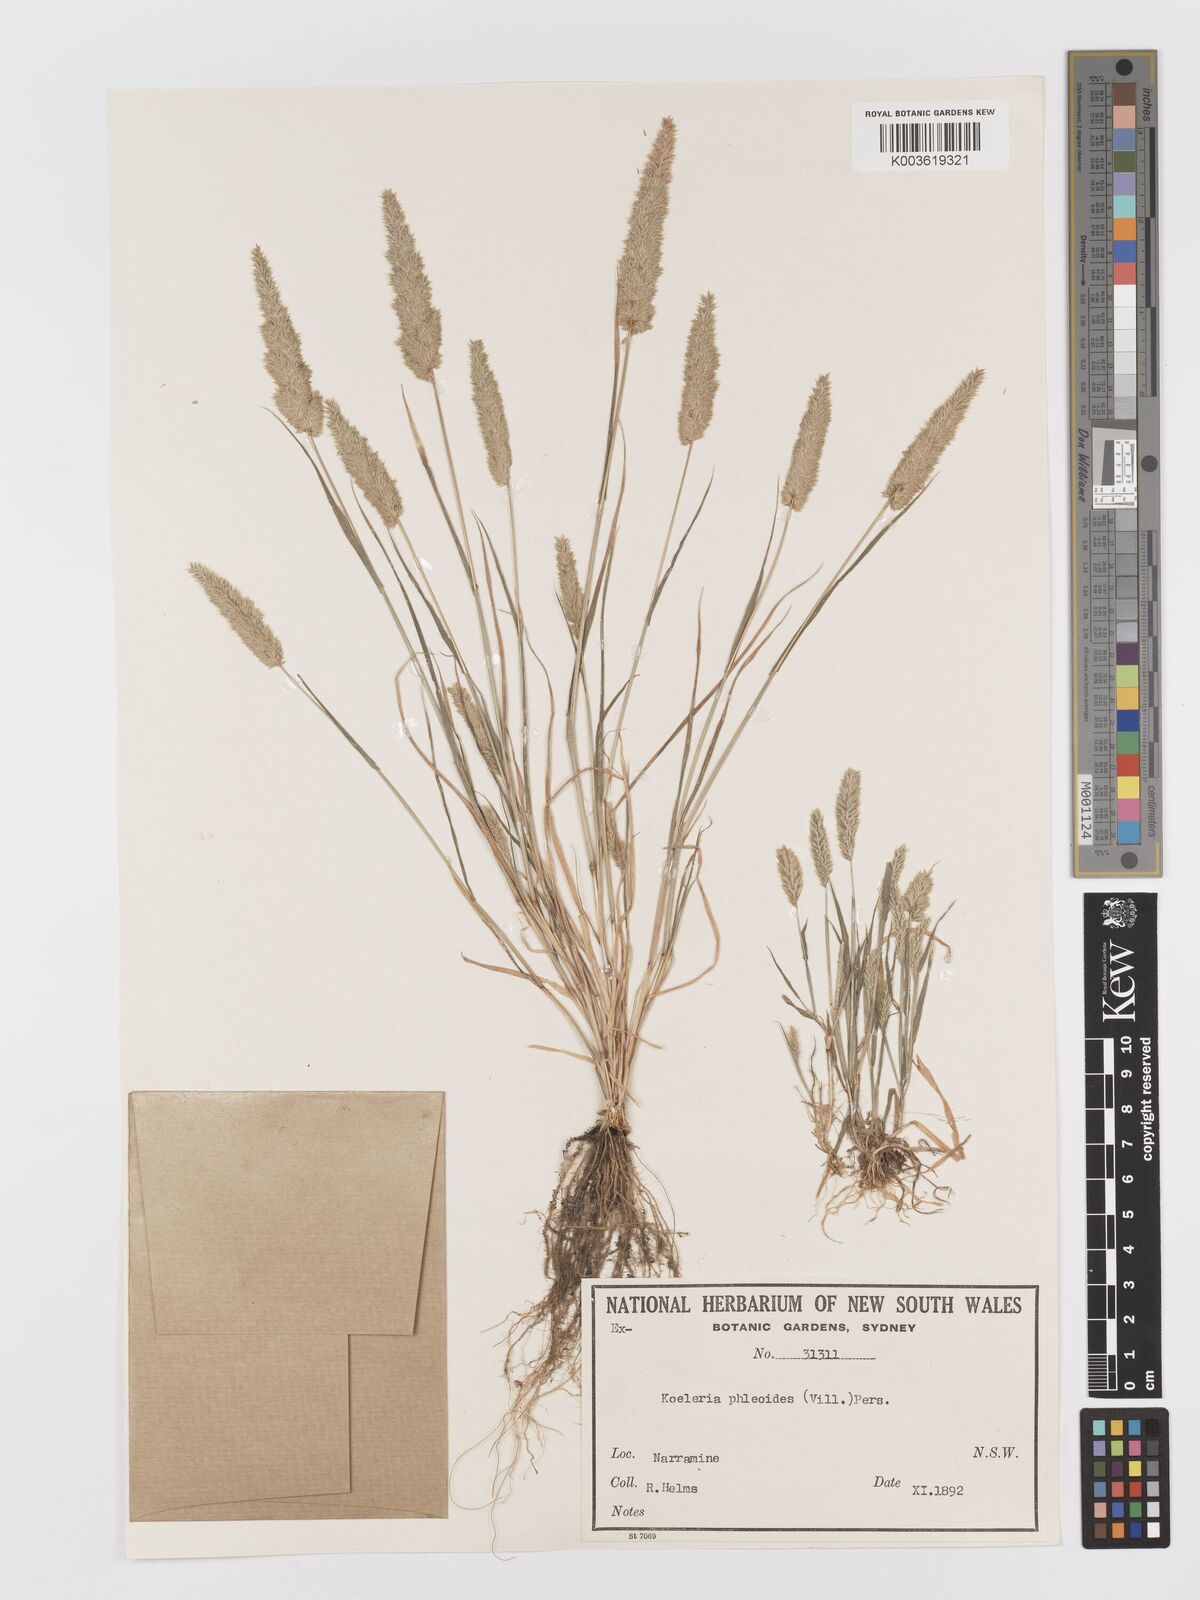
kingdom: Plantae
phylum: Tracheophyta
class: Liliopsida
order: Poales
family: Poaceae
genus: Rostraria
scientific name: Rostraria cristata
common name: Mediterranean hair-grass
